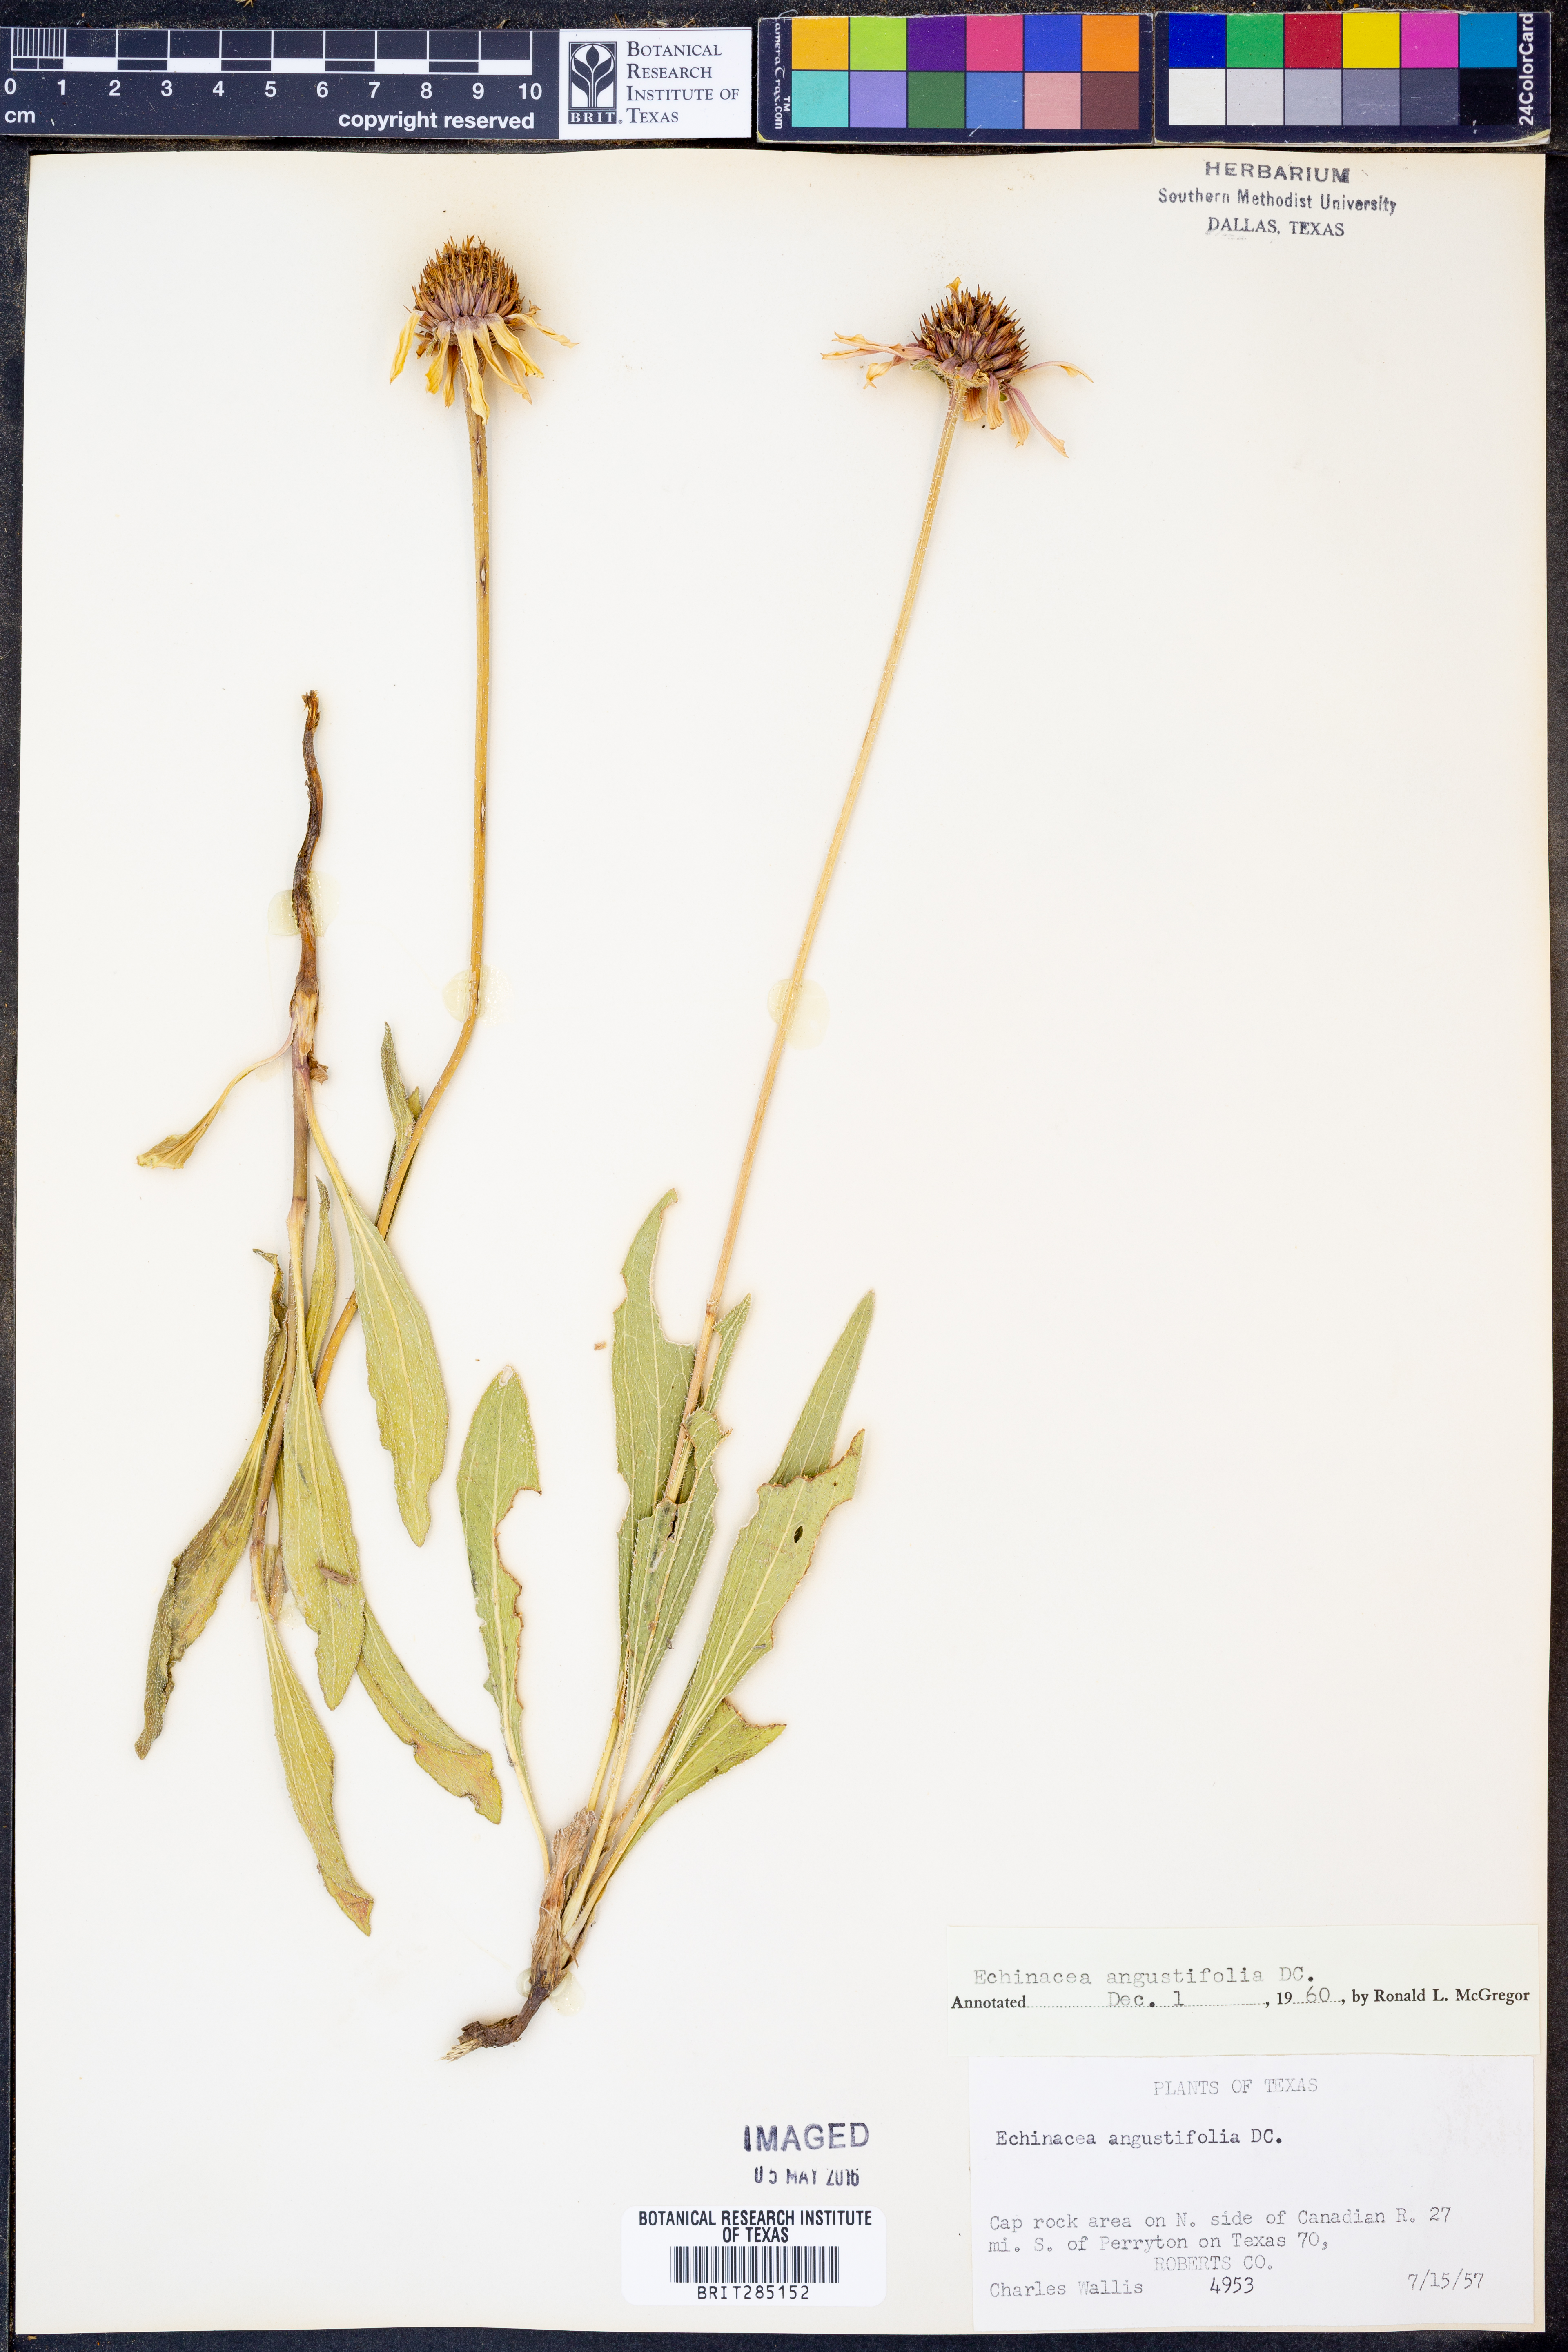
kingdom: Plantae
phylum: Tracheophyta
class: Magnoliopsida
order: Asterales
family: Asteraceae
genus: Echinacea
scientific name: Echinacea angustifolia
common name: Black-sampson echinacea
